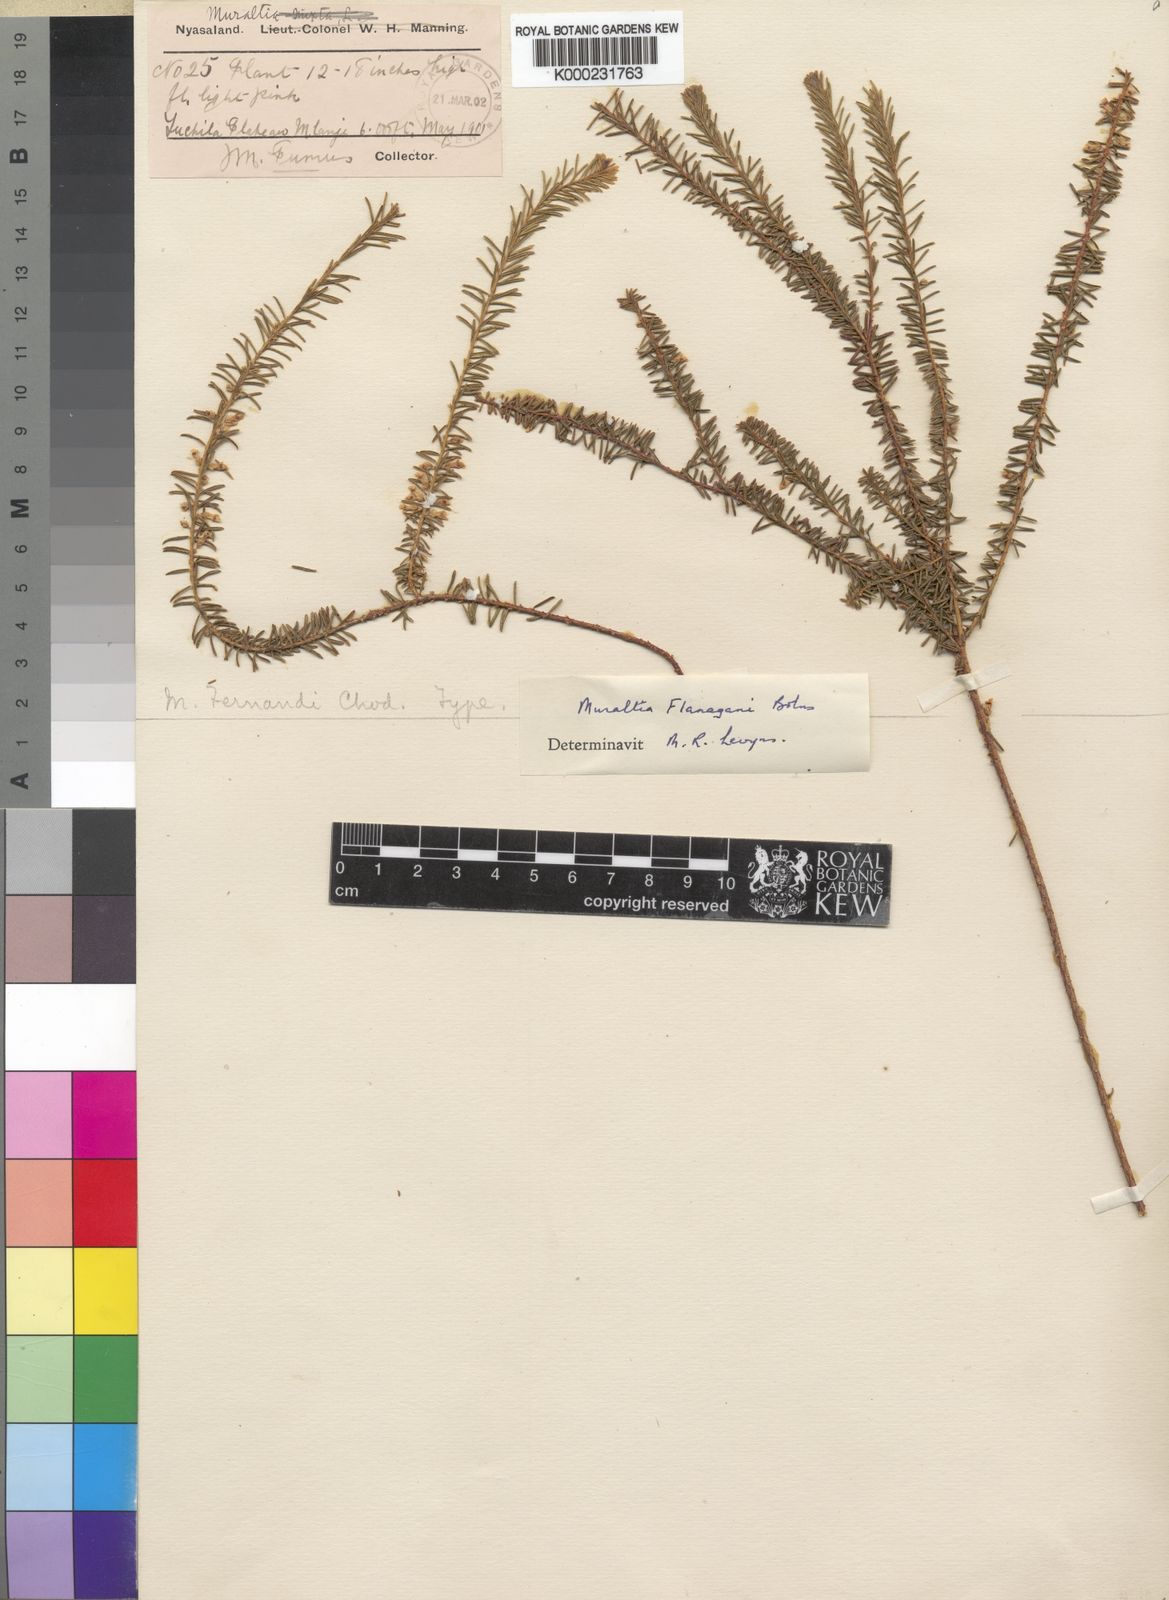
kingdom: Plantae
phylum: Tracheophyta
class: Magnoliopsida
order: Fabales
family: Polygalaceae
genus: Muraltia
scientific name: Muraltia flanaganii
